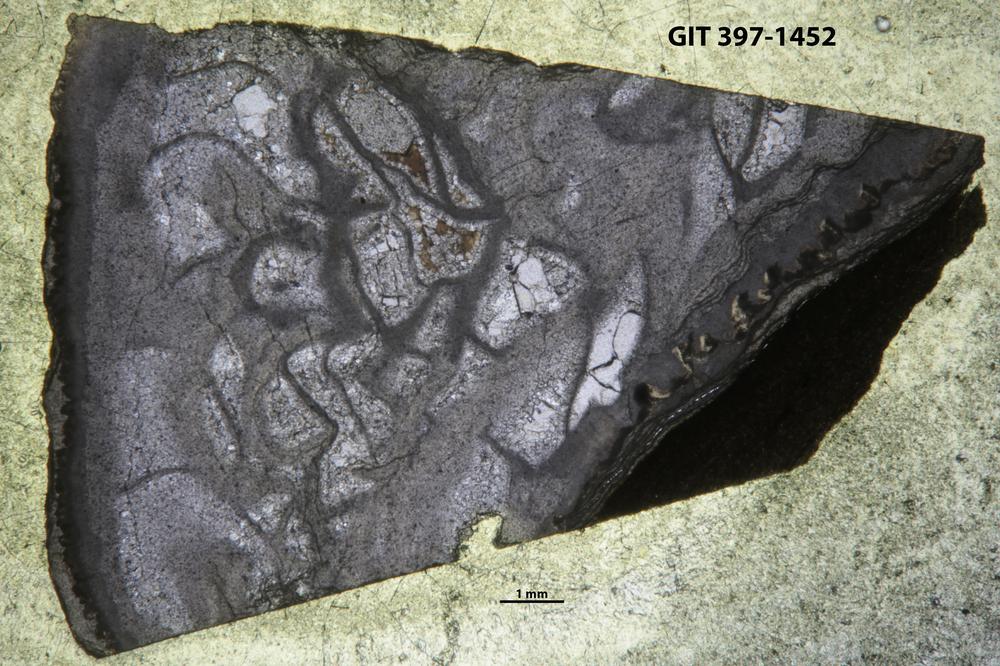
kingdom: Animalia
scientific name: Animalia
